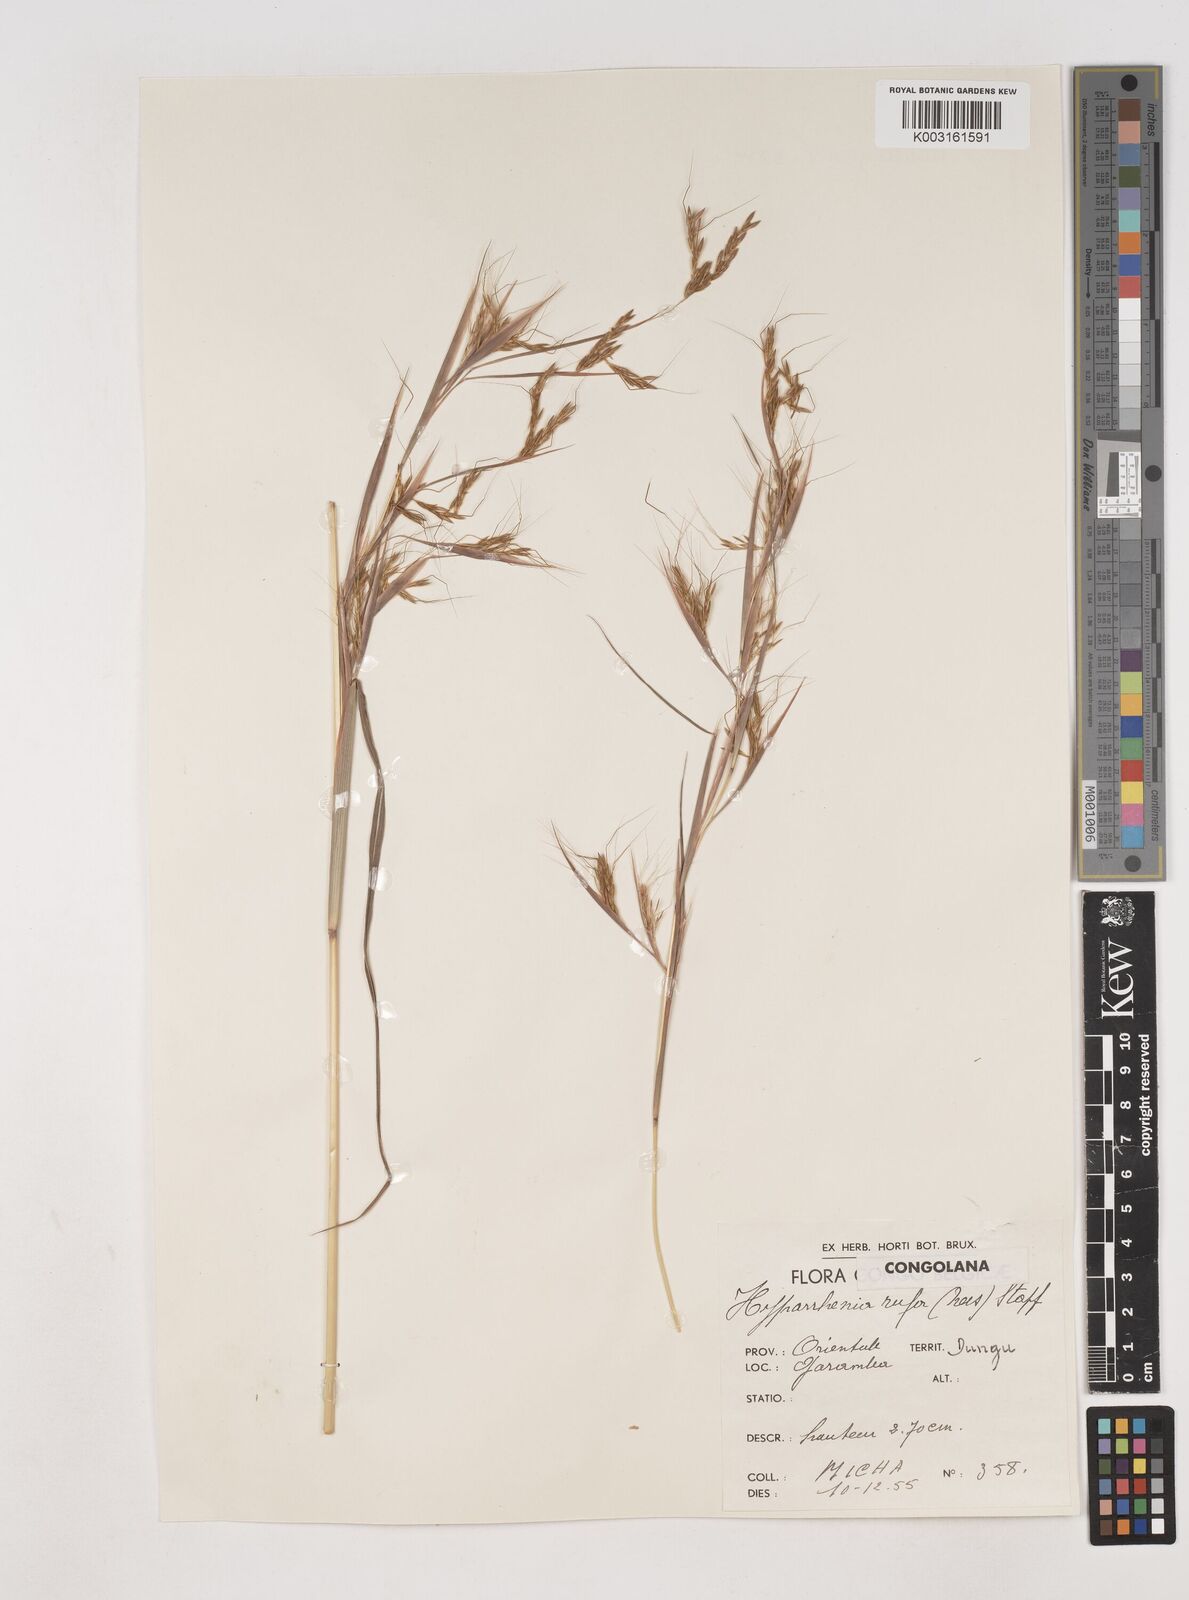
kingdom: Plantae
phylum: Tracheophyta
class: Liliopsida
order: Poales
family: Poaceae
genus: Hyparrhenia
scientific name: Hyparrhenia rufa
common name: Jaraguagrass
